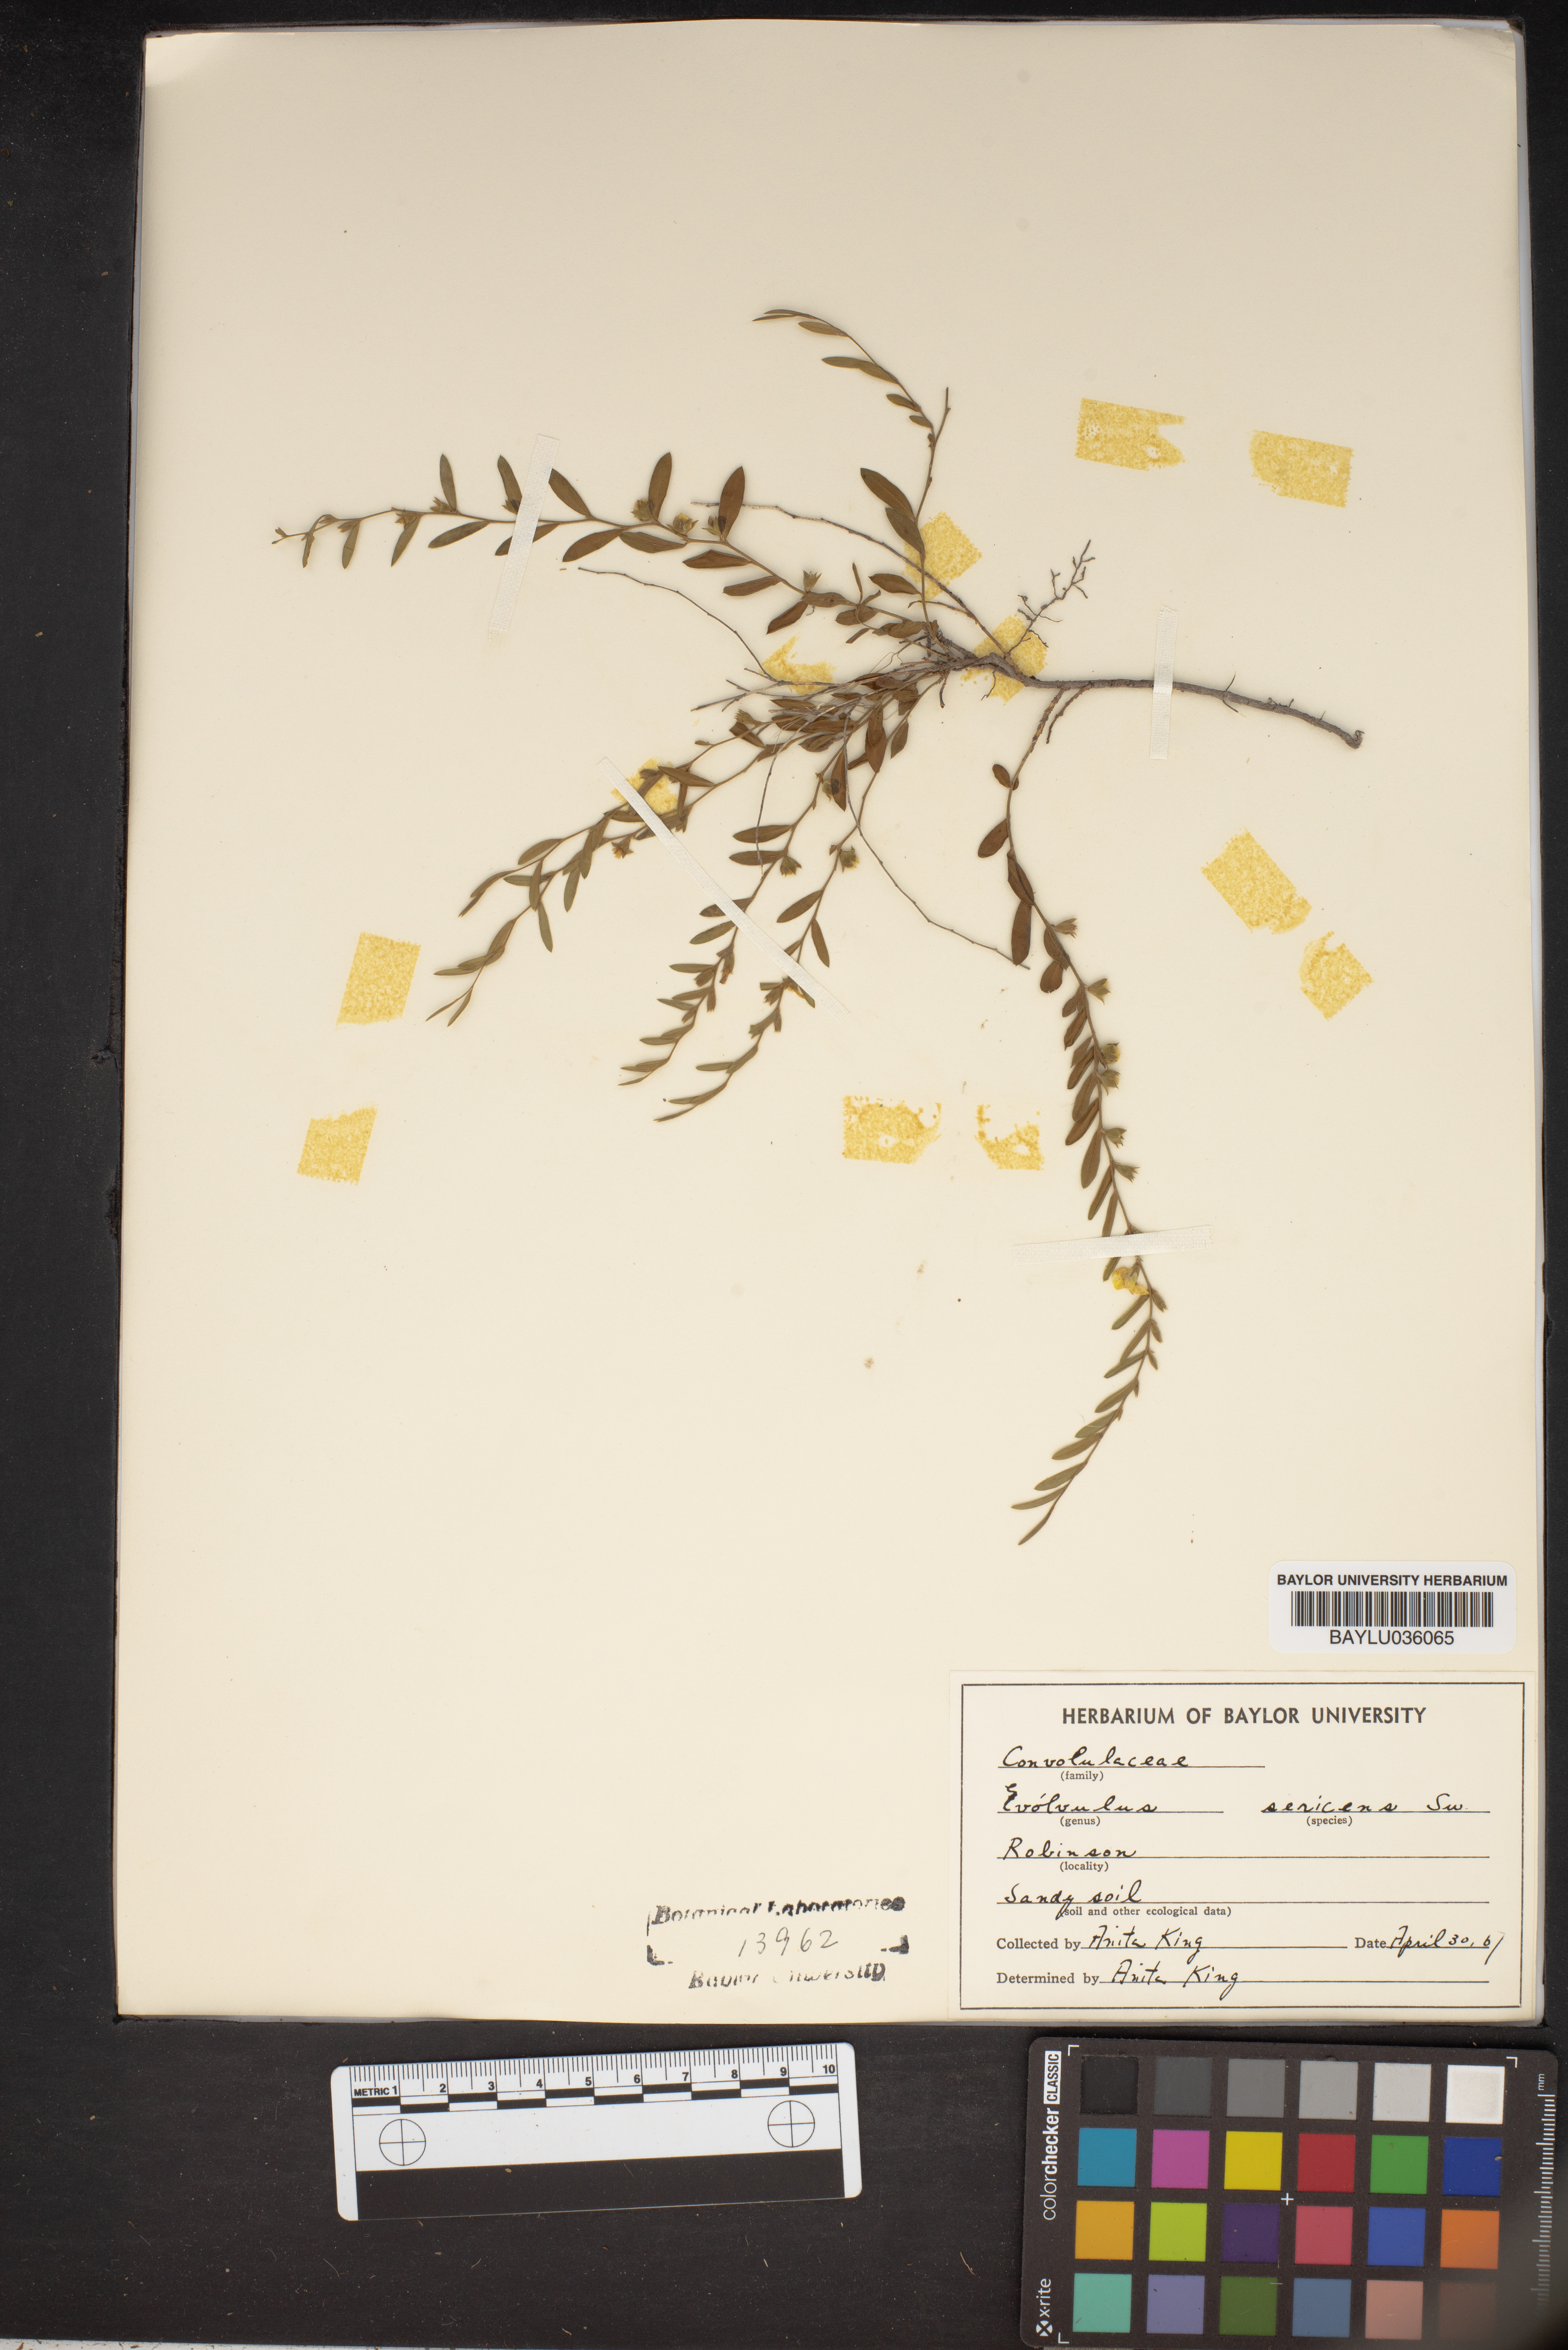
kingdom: Plantae
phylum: Tracheophyta
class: Magnoliopsida
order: Solanales
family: Convolvulaceae
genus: Evolvulus
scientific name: Evolvulus sericeus
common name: Blue dots
